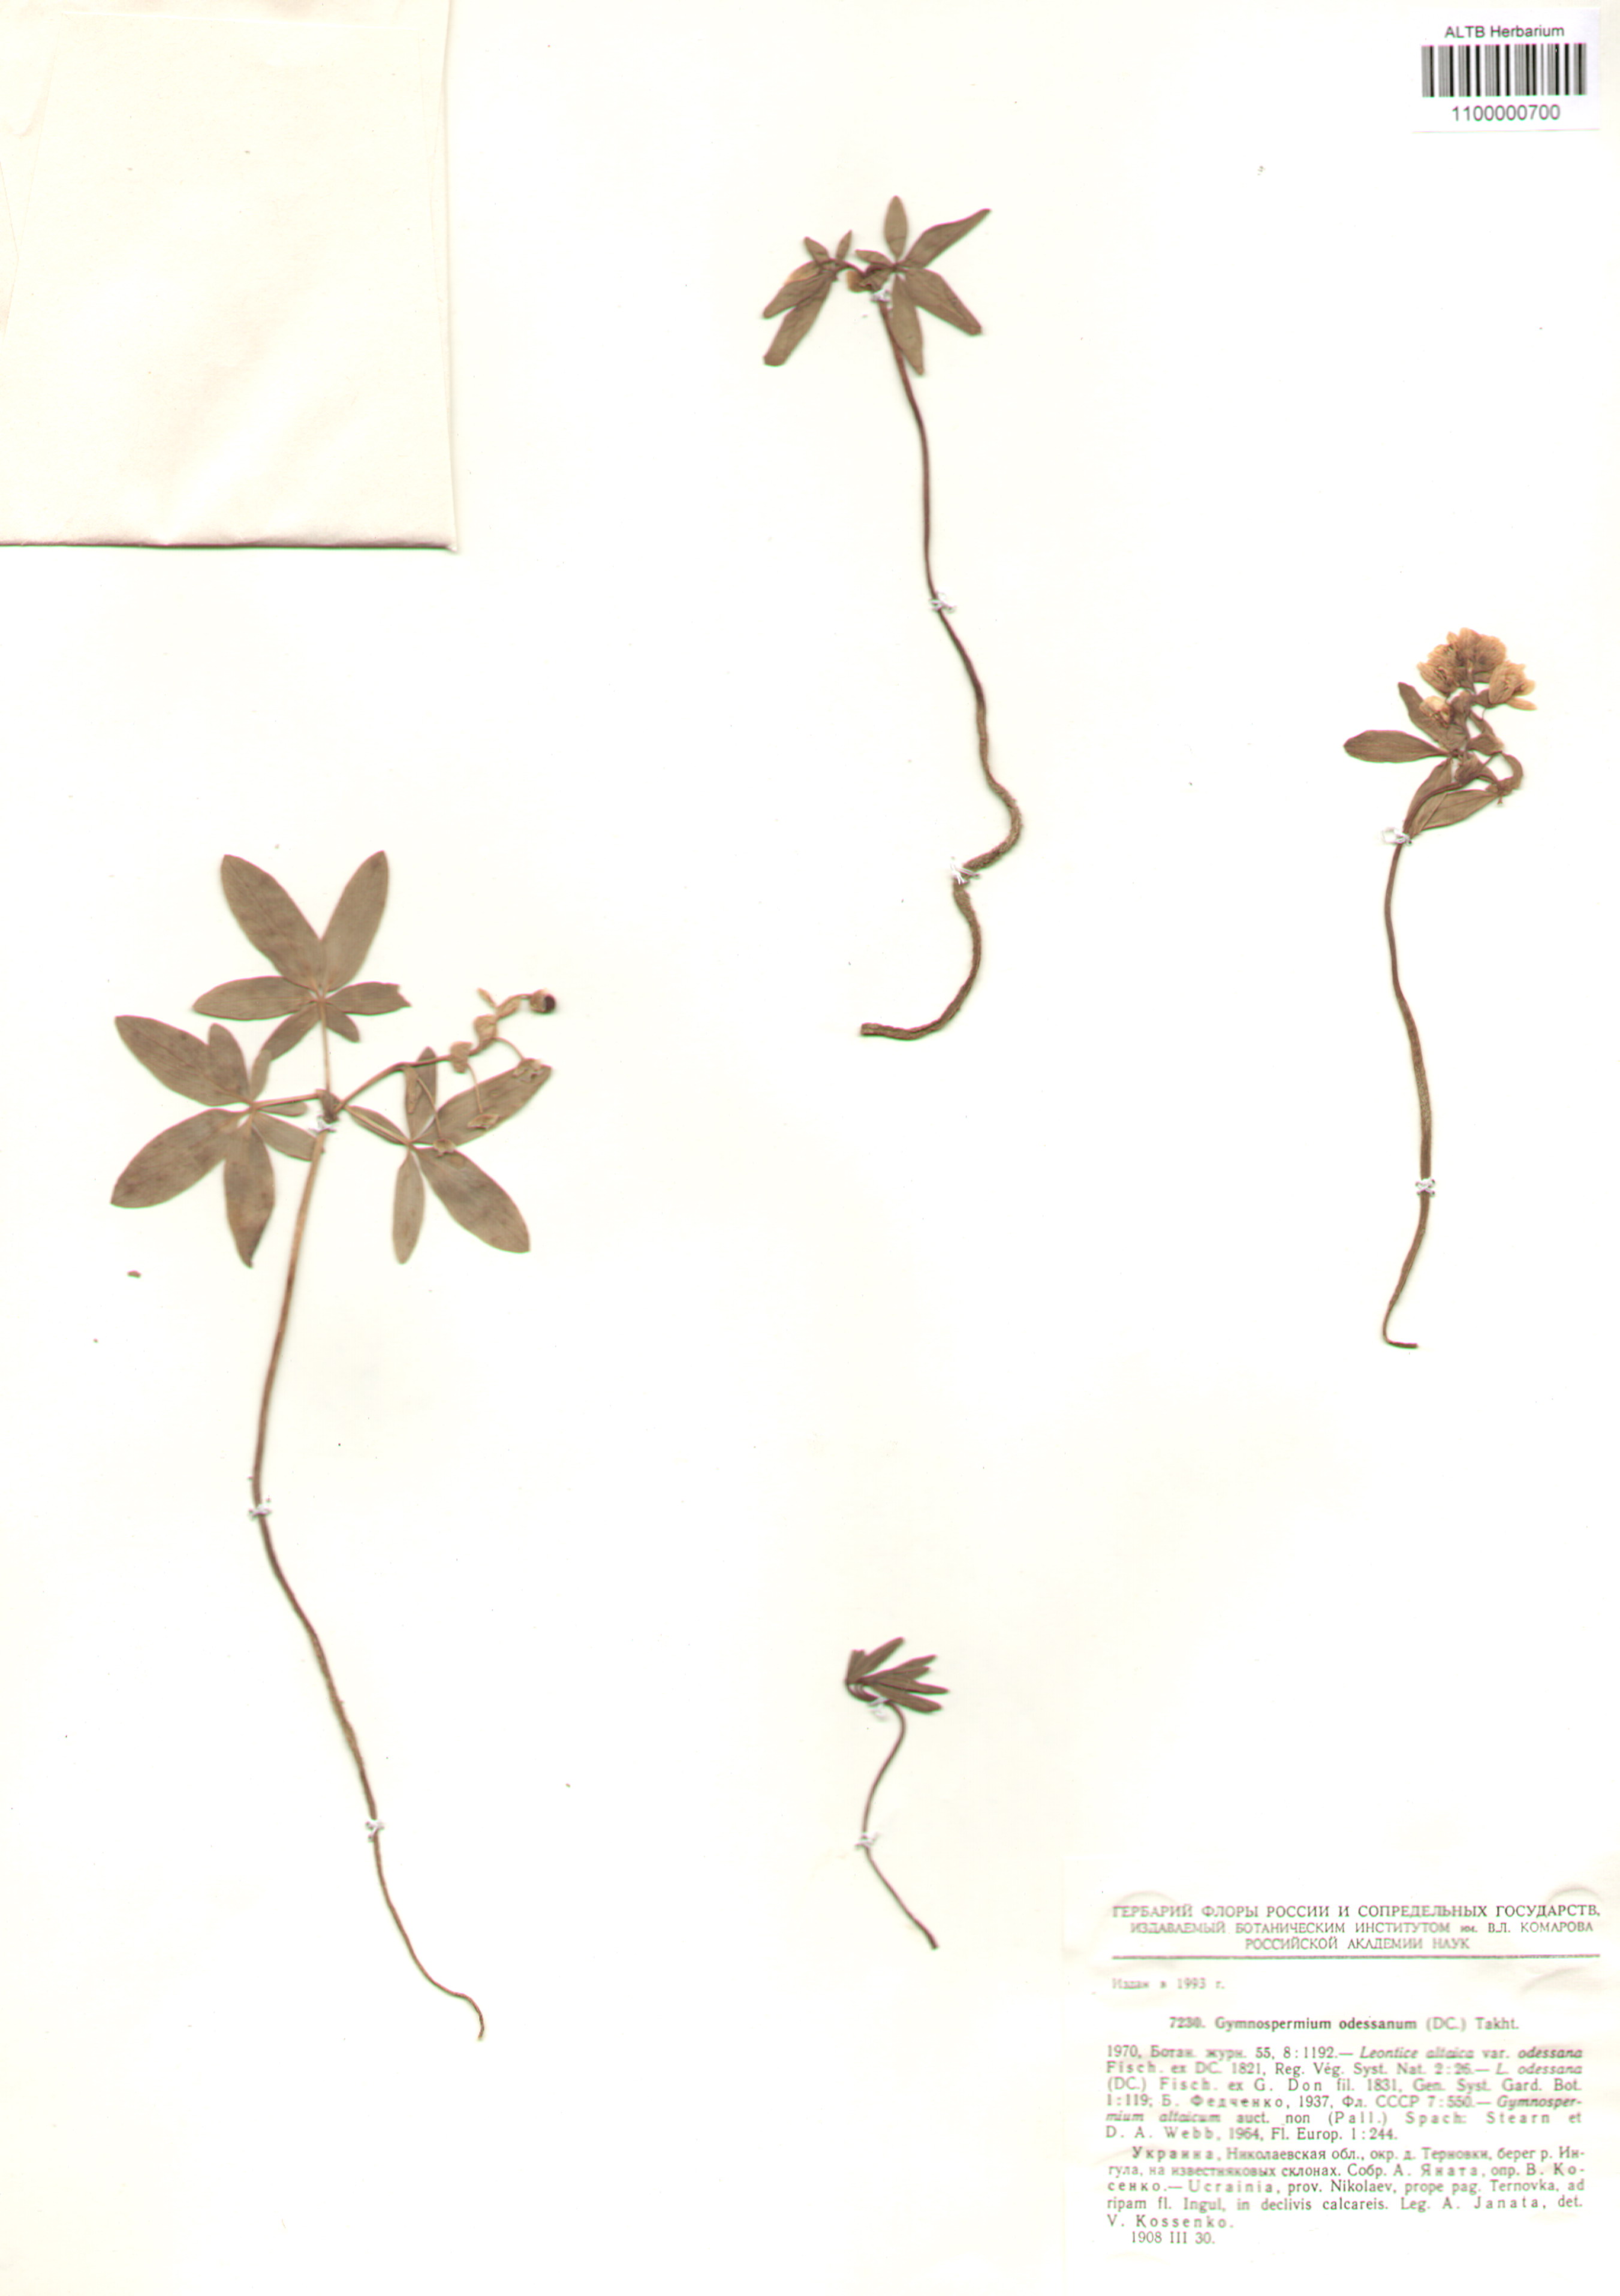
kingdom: Plantae
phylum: Tracheophyta
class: Magnoliopsida
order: Ranunculales
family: Berberidaceae
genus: Gymnospermium
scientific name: Gymnospermium odessanum
